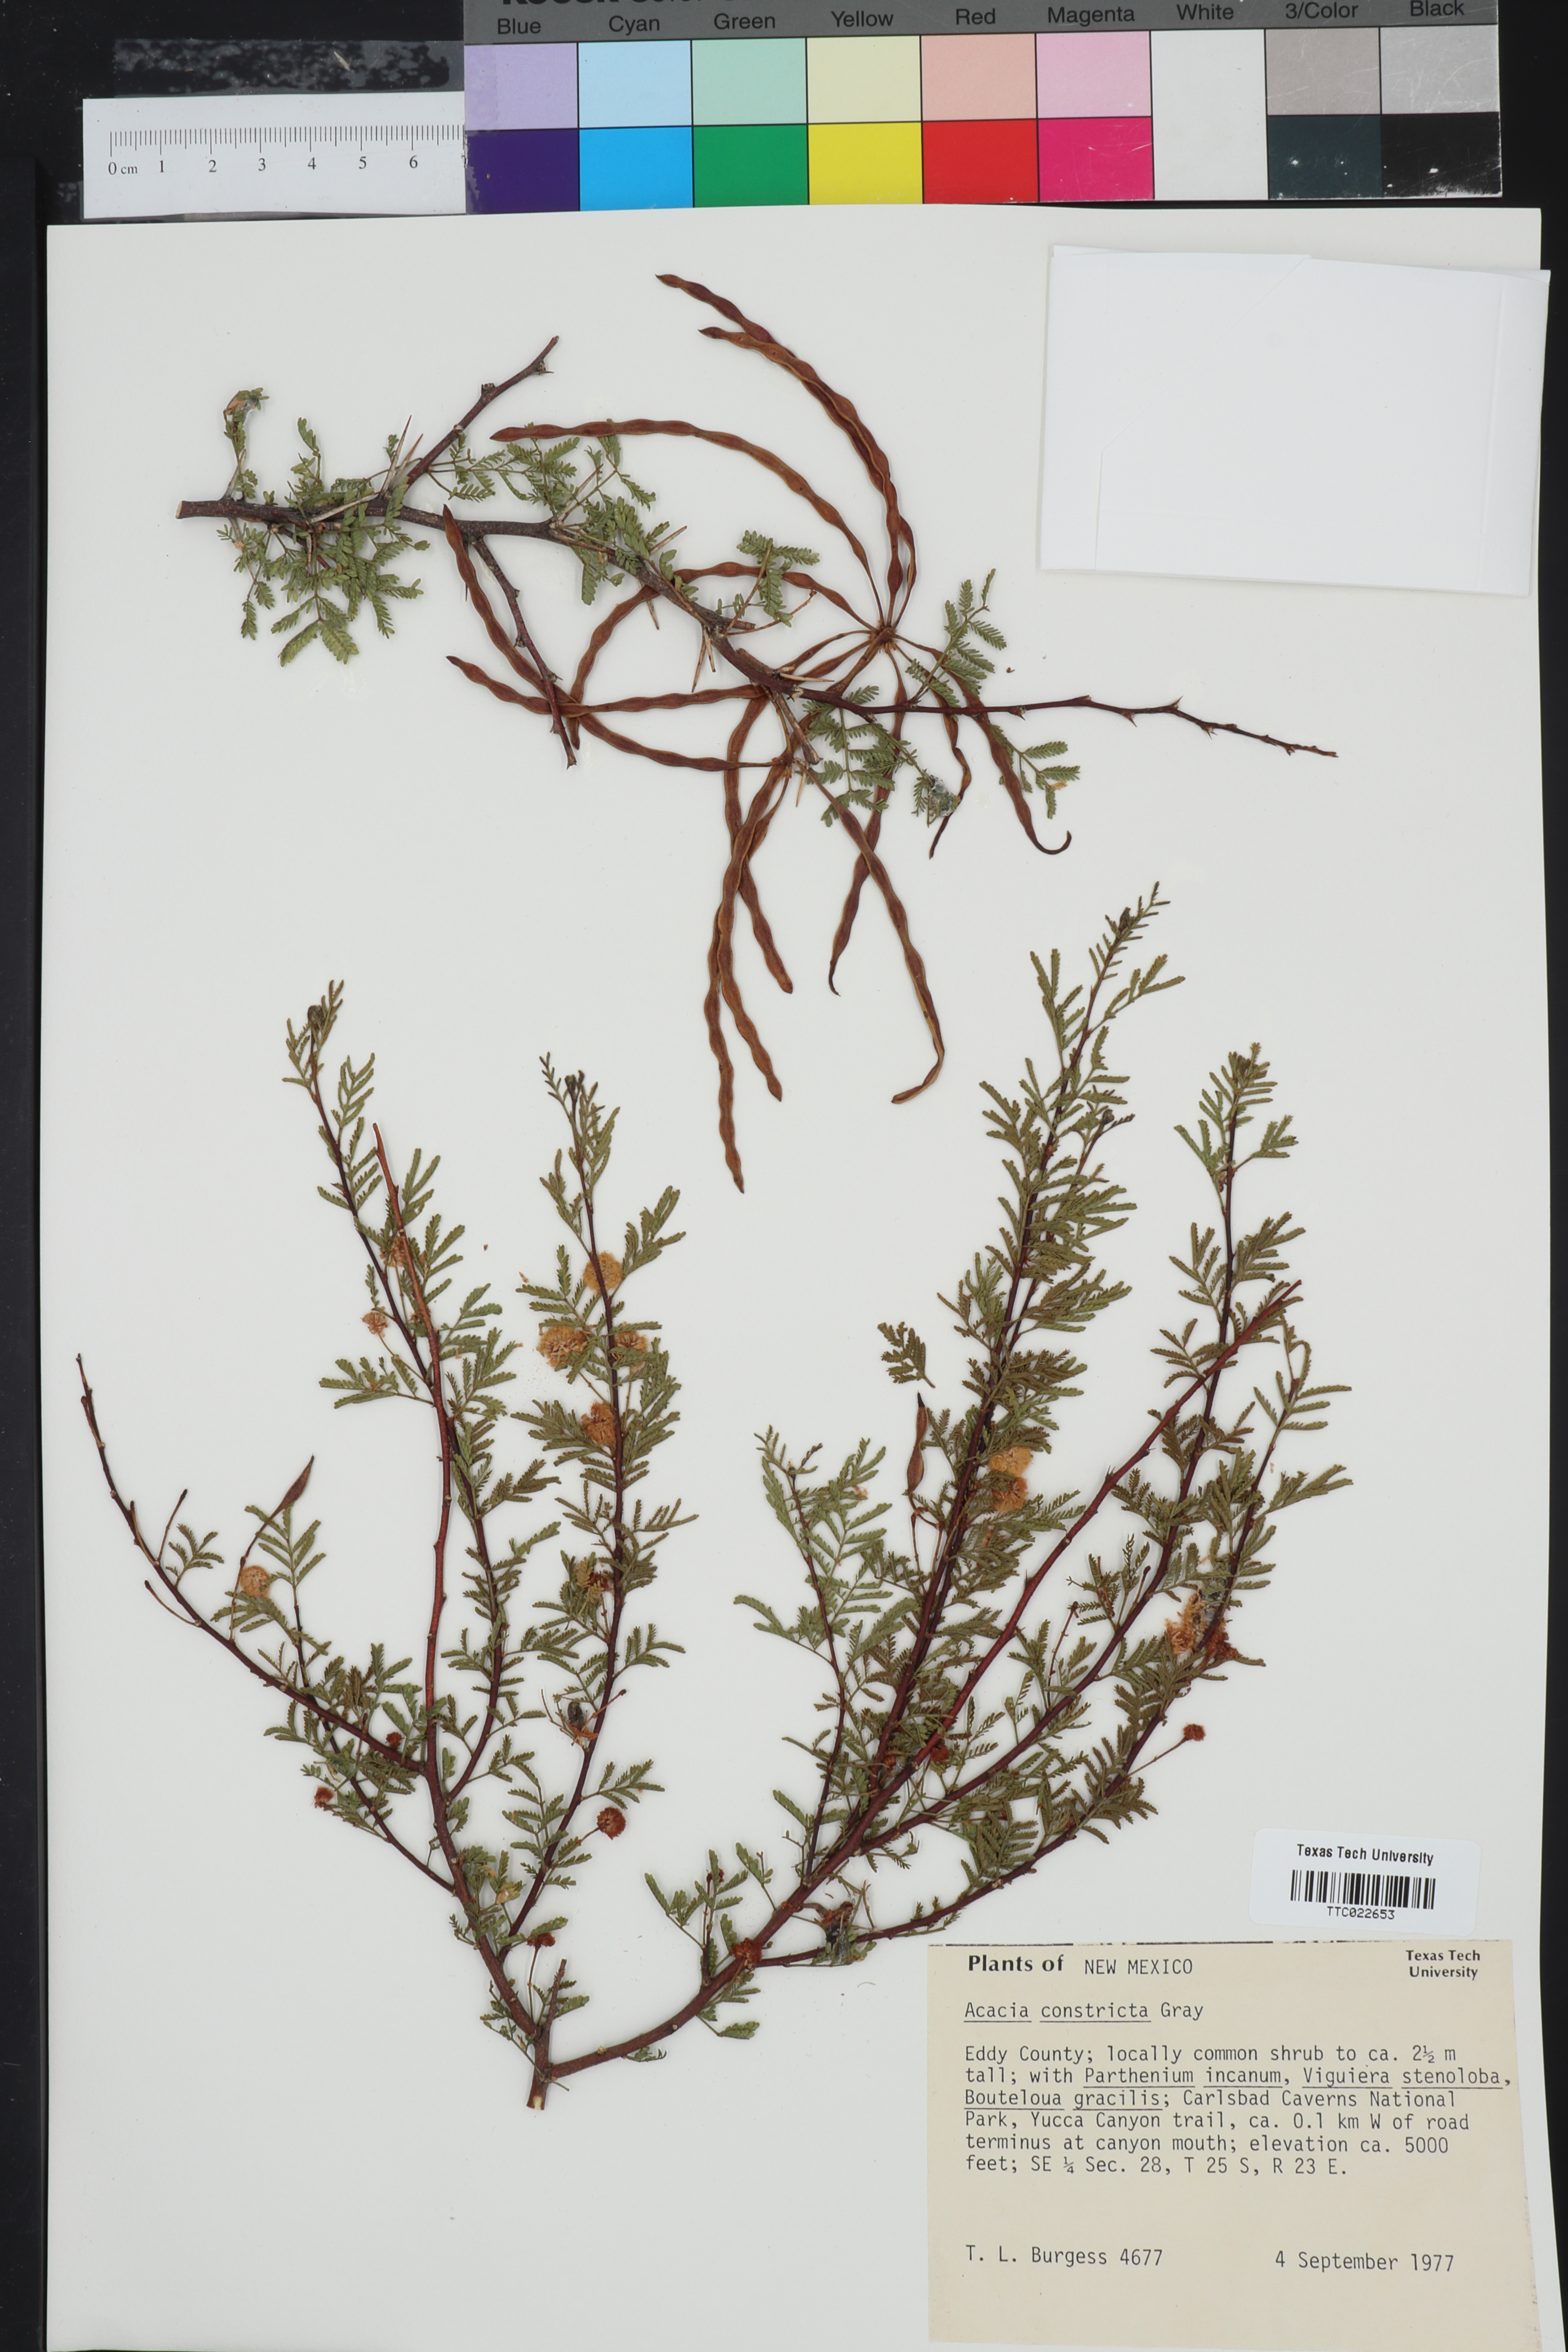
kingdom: Plantae
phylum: Tracheophyta
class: Magnoliopsida
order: Fabales
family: Fabaceae
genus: Vachellia
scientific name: Vachellia constricta
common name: Mescat acacia
